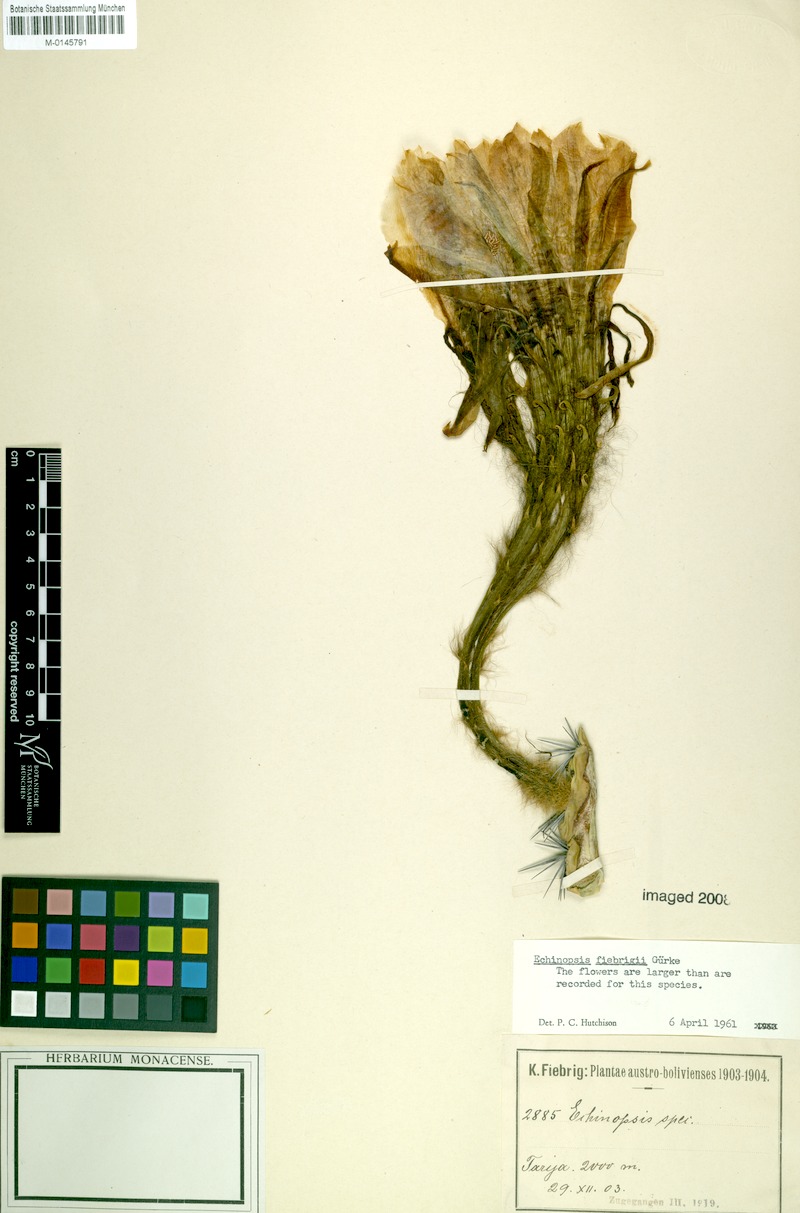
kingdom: Plantae
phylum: Tracheophyta
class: Magnoliopsida
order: Caryophyllales
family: Cactaceae
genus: Lobivia
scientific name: Lobivia obrepanda
